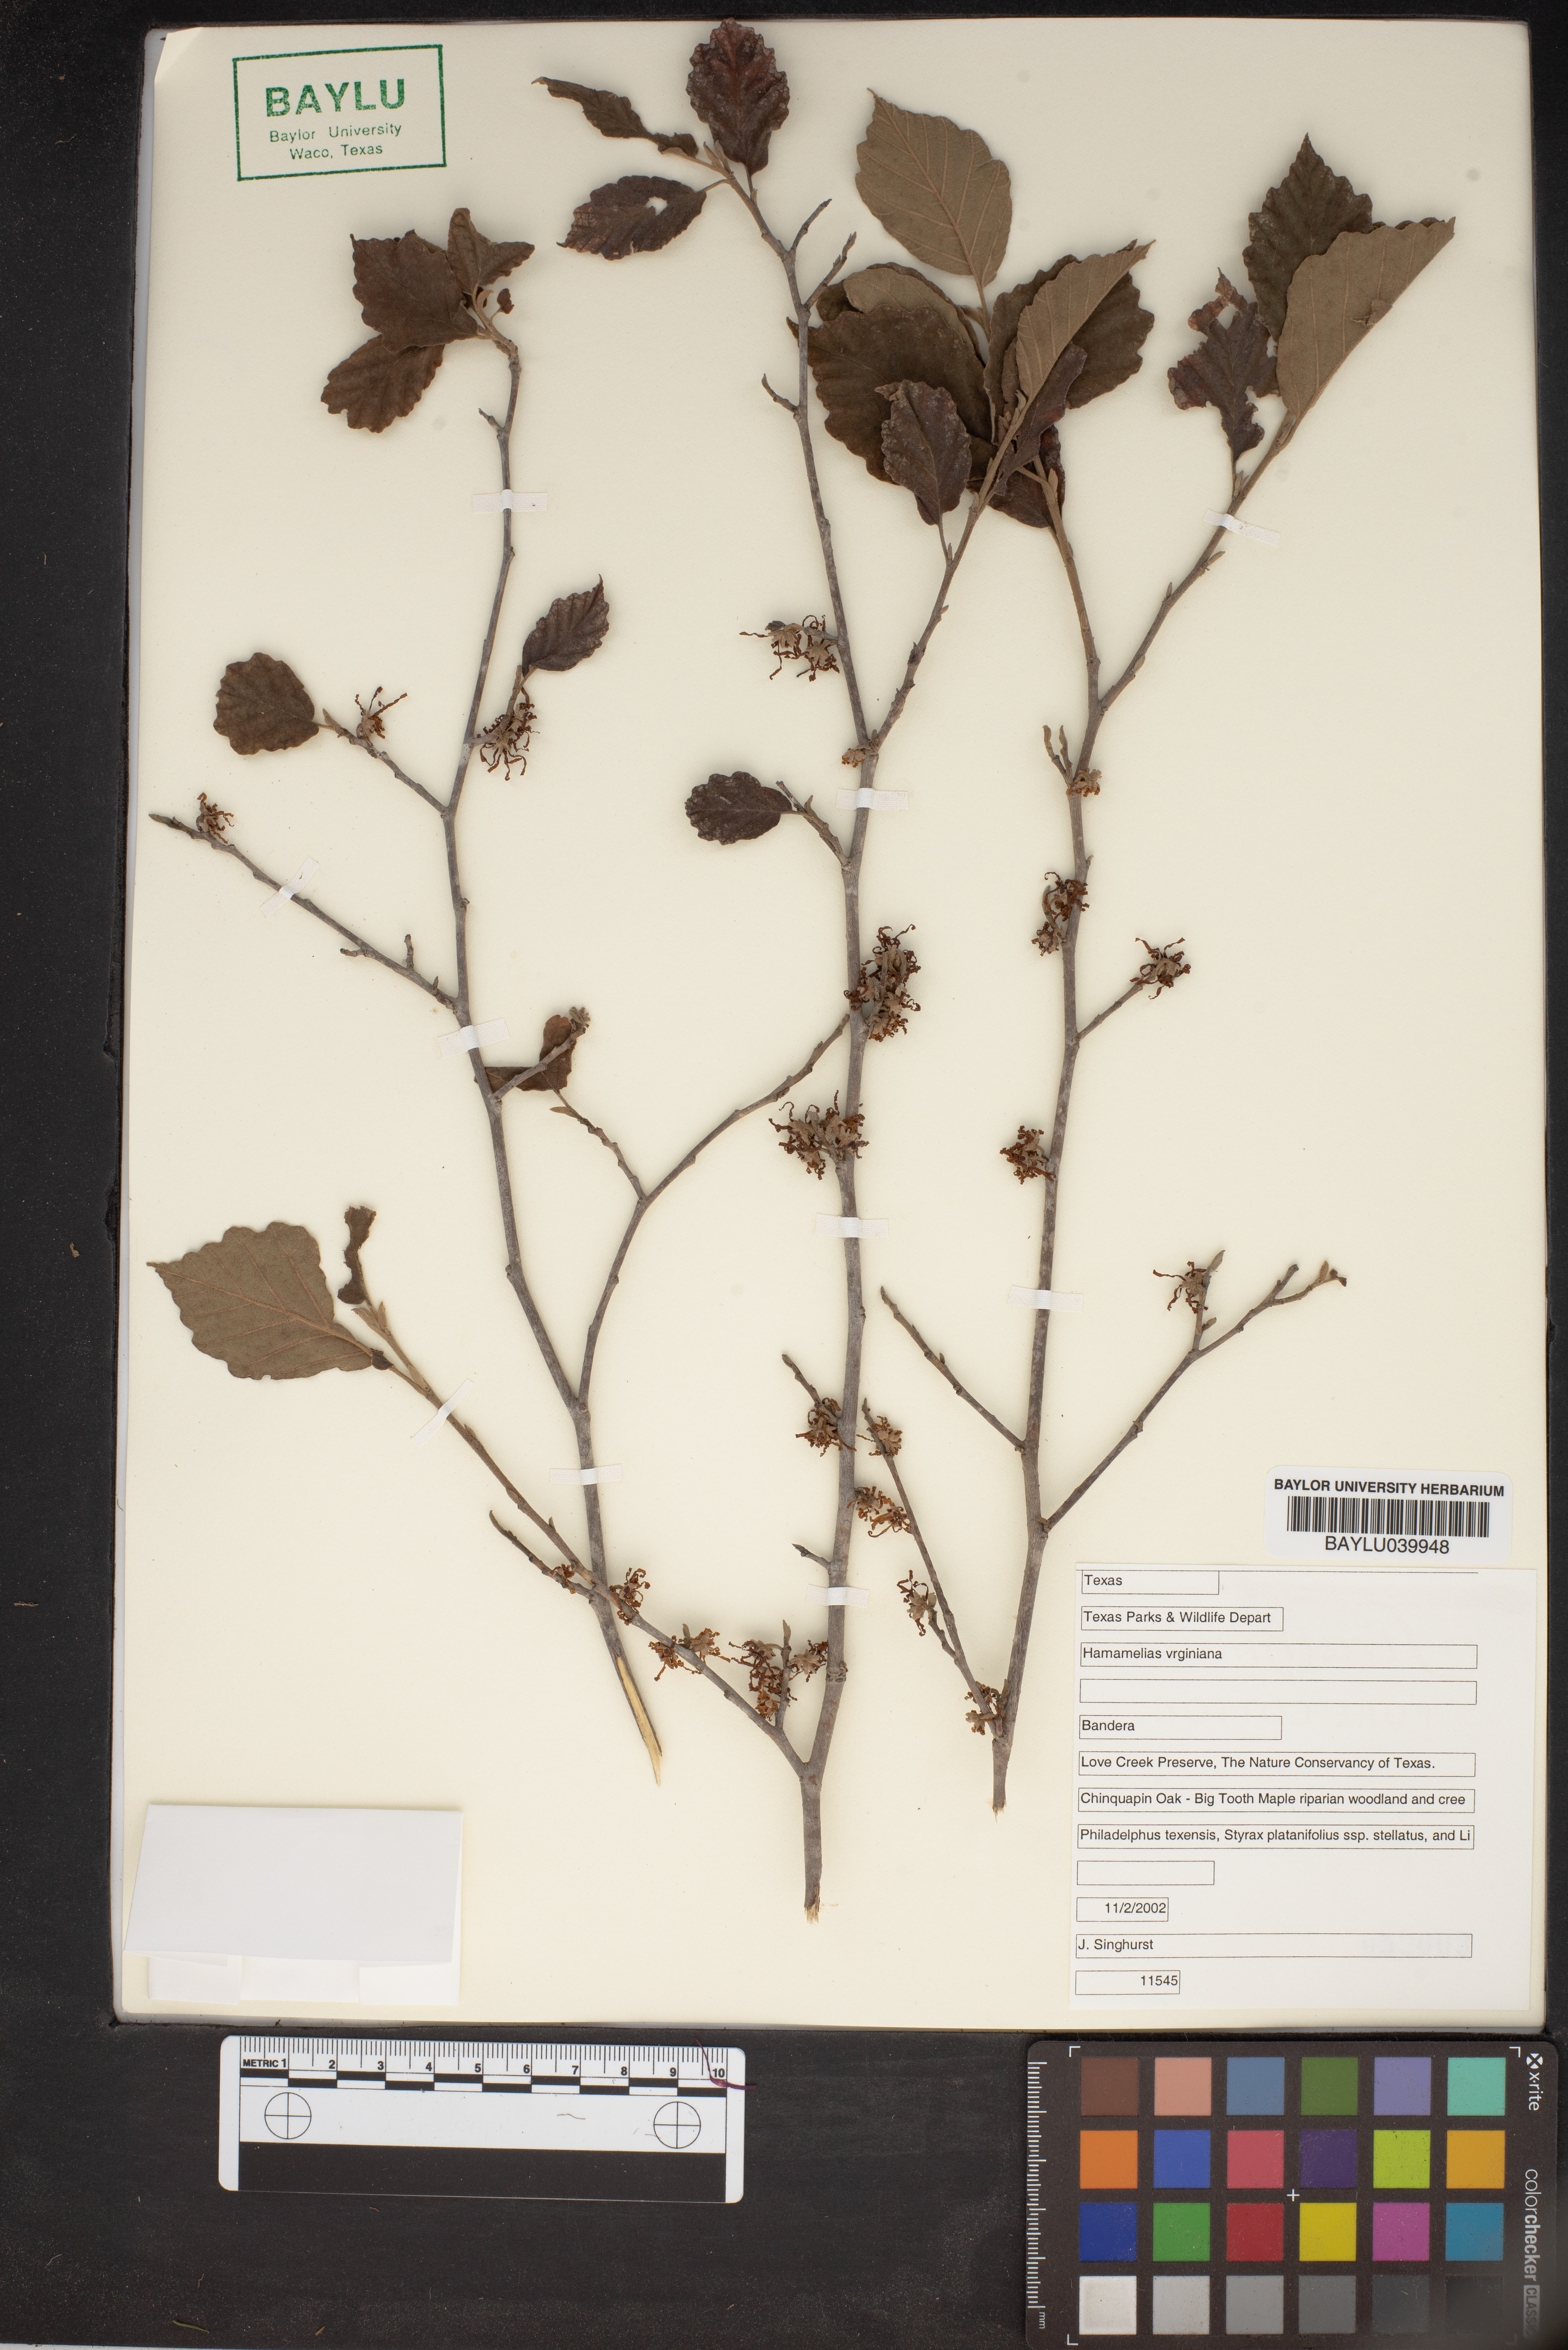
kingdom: Plantae
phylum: Tracheophyta
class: Magnoliopsida
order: Saxifragales
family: Hamamelidaceae
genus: Hamamelis
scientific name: Hamamelis virginiana
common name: Witch-hazel
